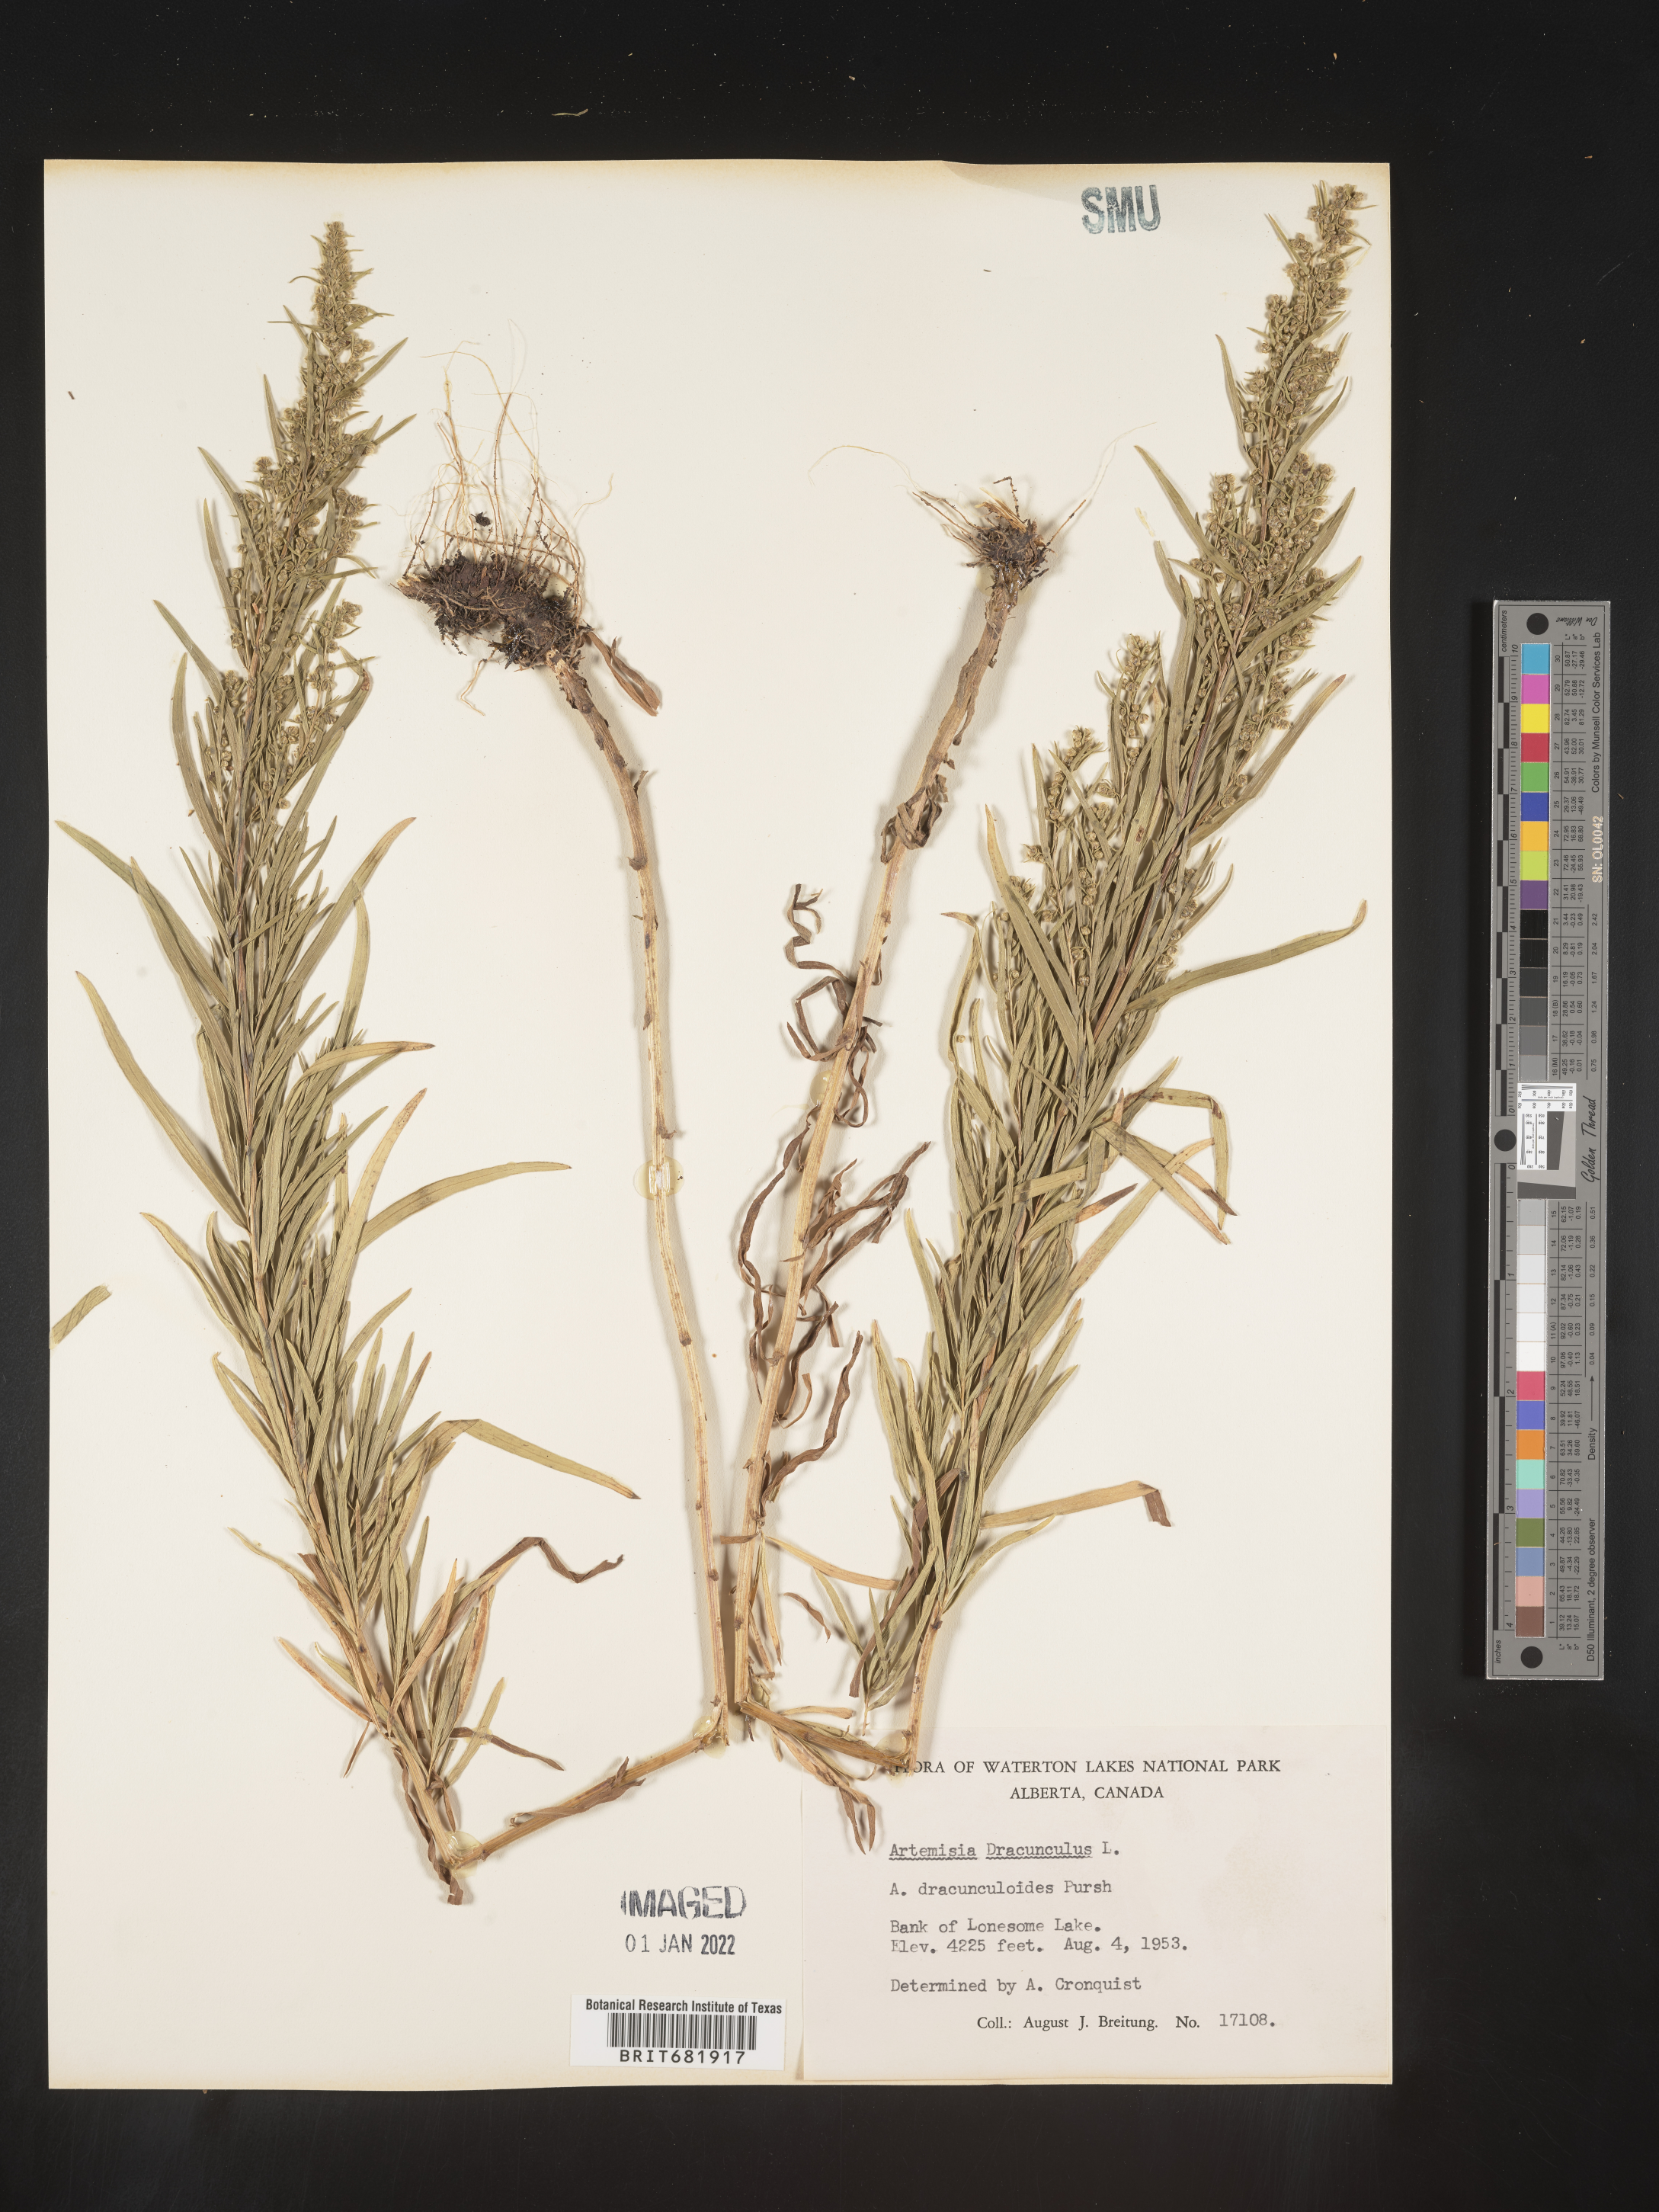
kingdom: Plantae
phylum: Tracheophyta
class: Magnoliopsida
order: Asterales
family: Asteraceae
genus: Artemisia
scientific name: Artemisia dracunculus
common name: Tarragon
